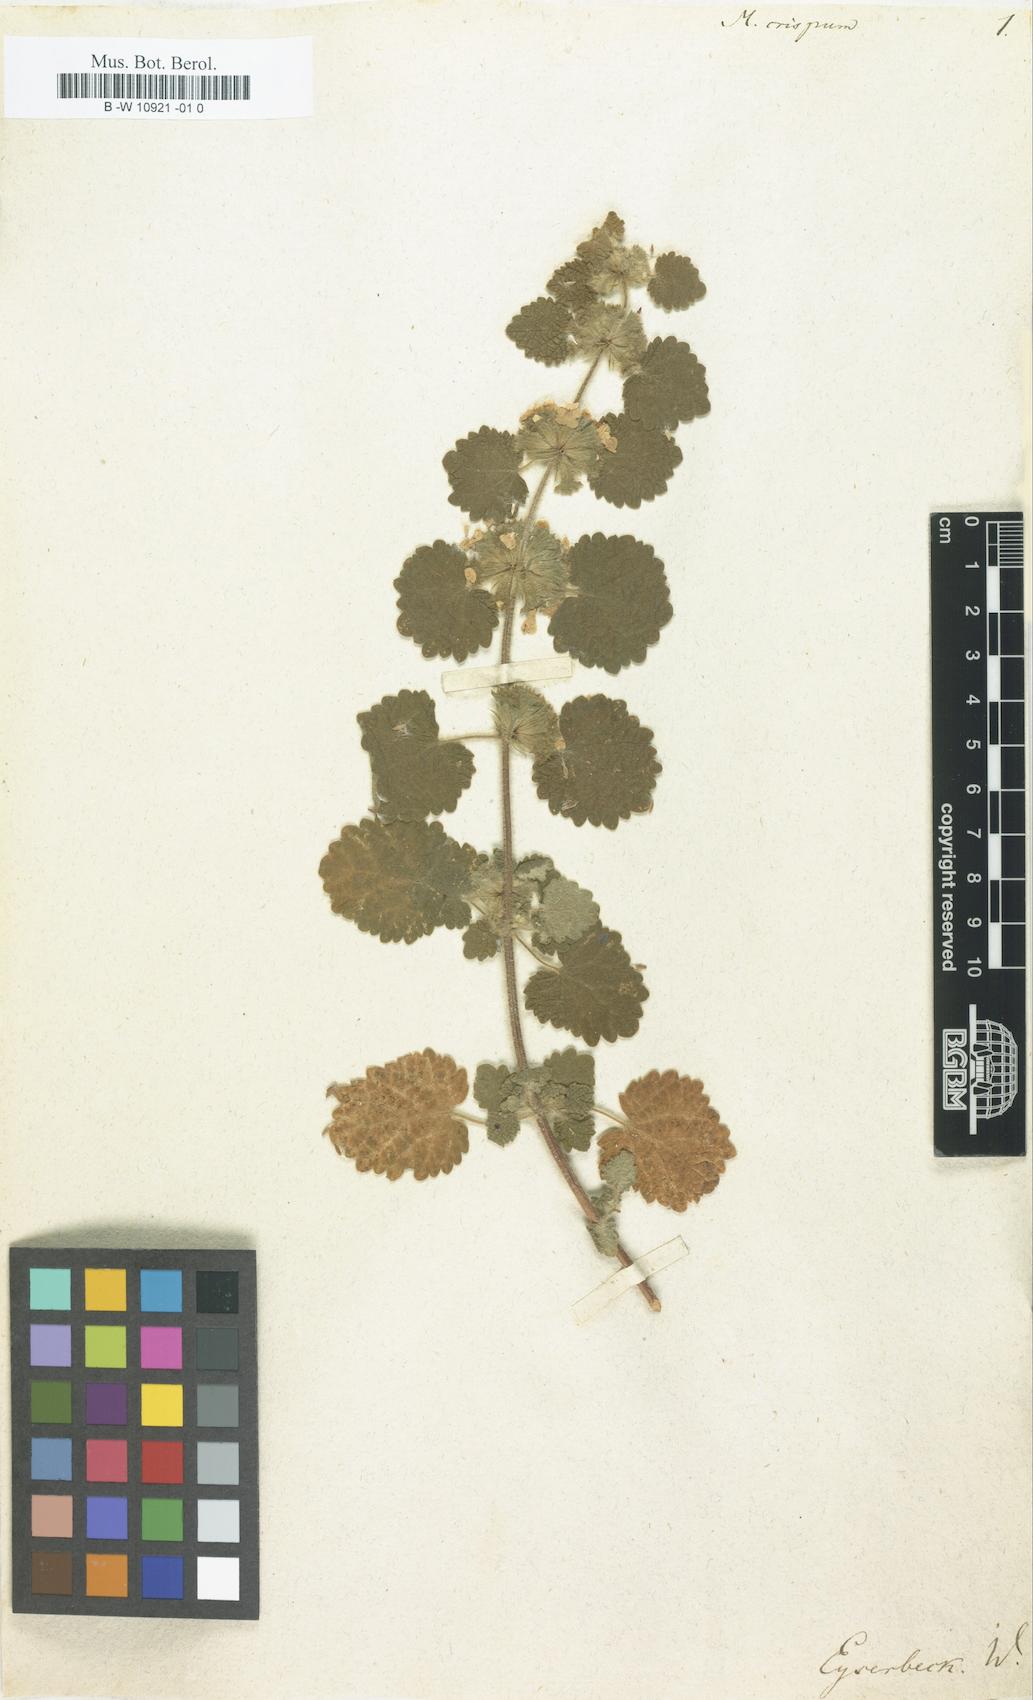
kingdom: Plantae
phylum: Tracheophyta
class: Magnoliopsida
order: Lamiales
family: Lamiaceae
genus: Pseudodictamnus
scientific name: Pseudodictamnus
